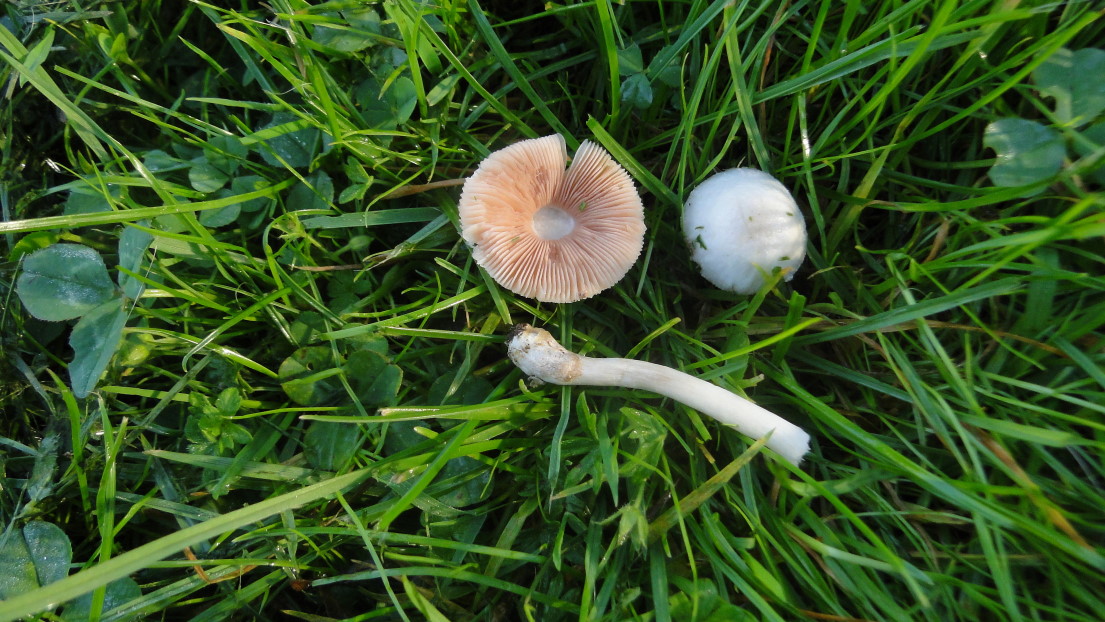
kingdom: Fungi
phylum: Basidiomycota
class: Agaricomycetes
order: Agaricales
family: Pluteaceae
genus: Volvariella
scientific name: Volvariella pusilla
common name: liden posesvamp
